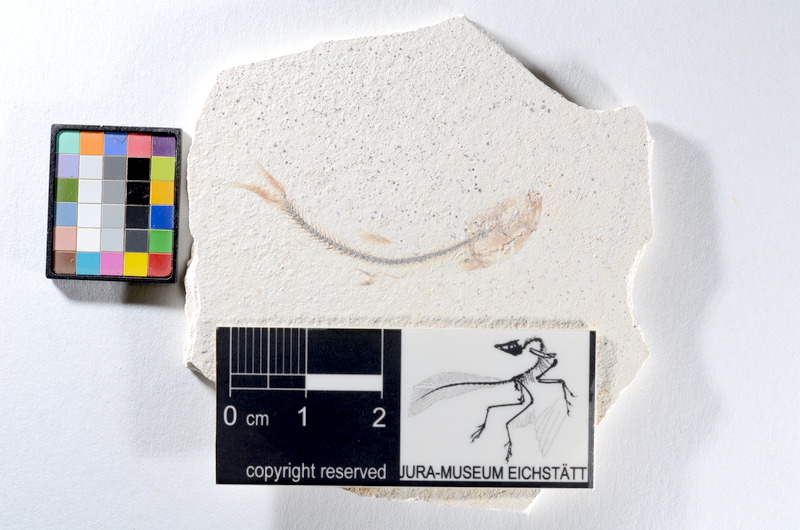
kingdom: Animalia
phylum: Chordata
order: Salmoniformes
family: Orthogonikleithridae
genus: Orthogonikleithrus
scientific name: Orthogonikleithrus hoelli
